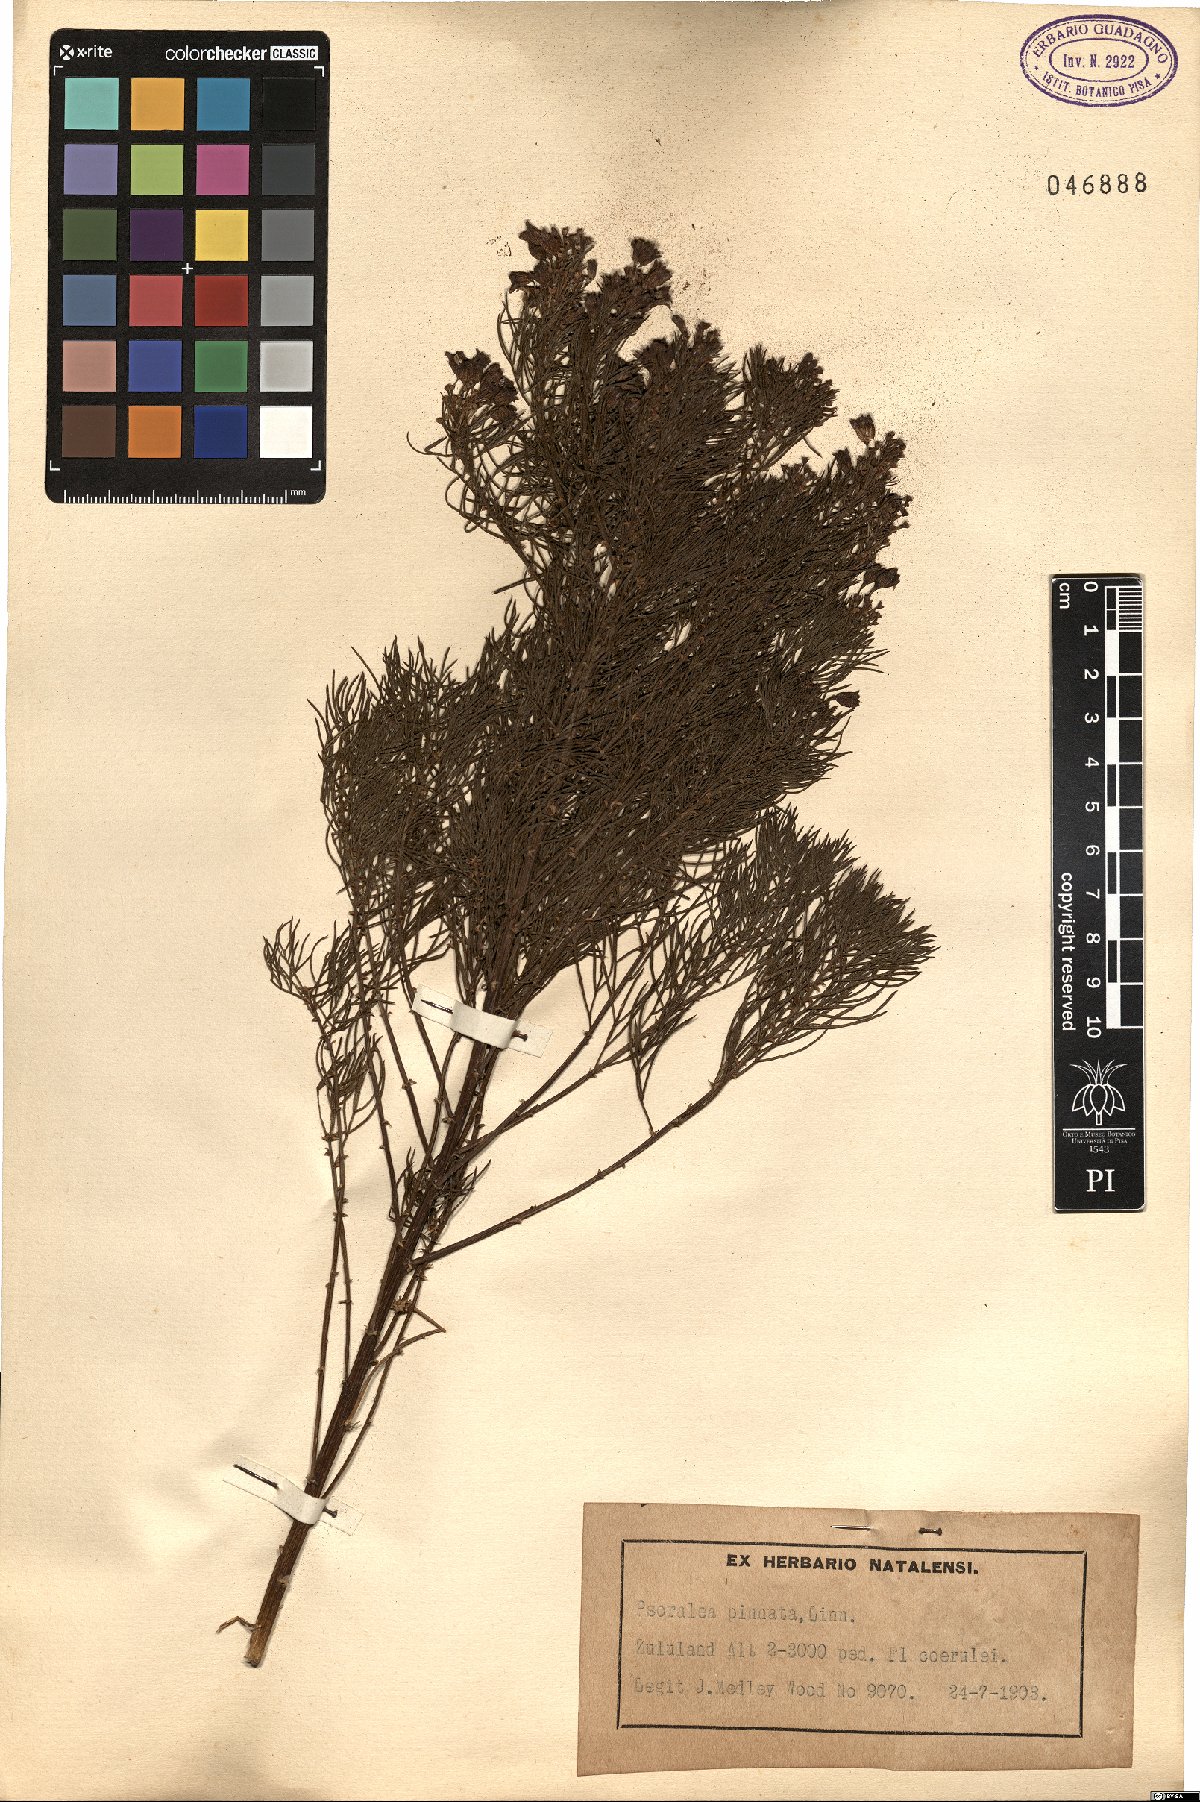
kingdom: Plantae
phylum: Tracheophyta
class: Magnoliopsida
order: Fabales
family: Fabaceae
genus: Psoralea
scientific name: Psoralea pinnata
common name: African scurfpea
